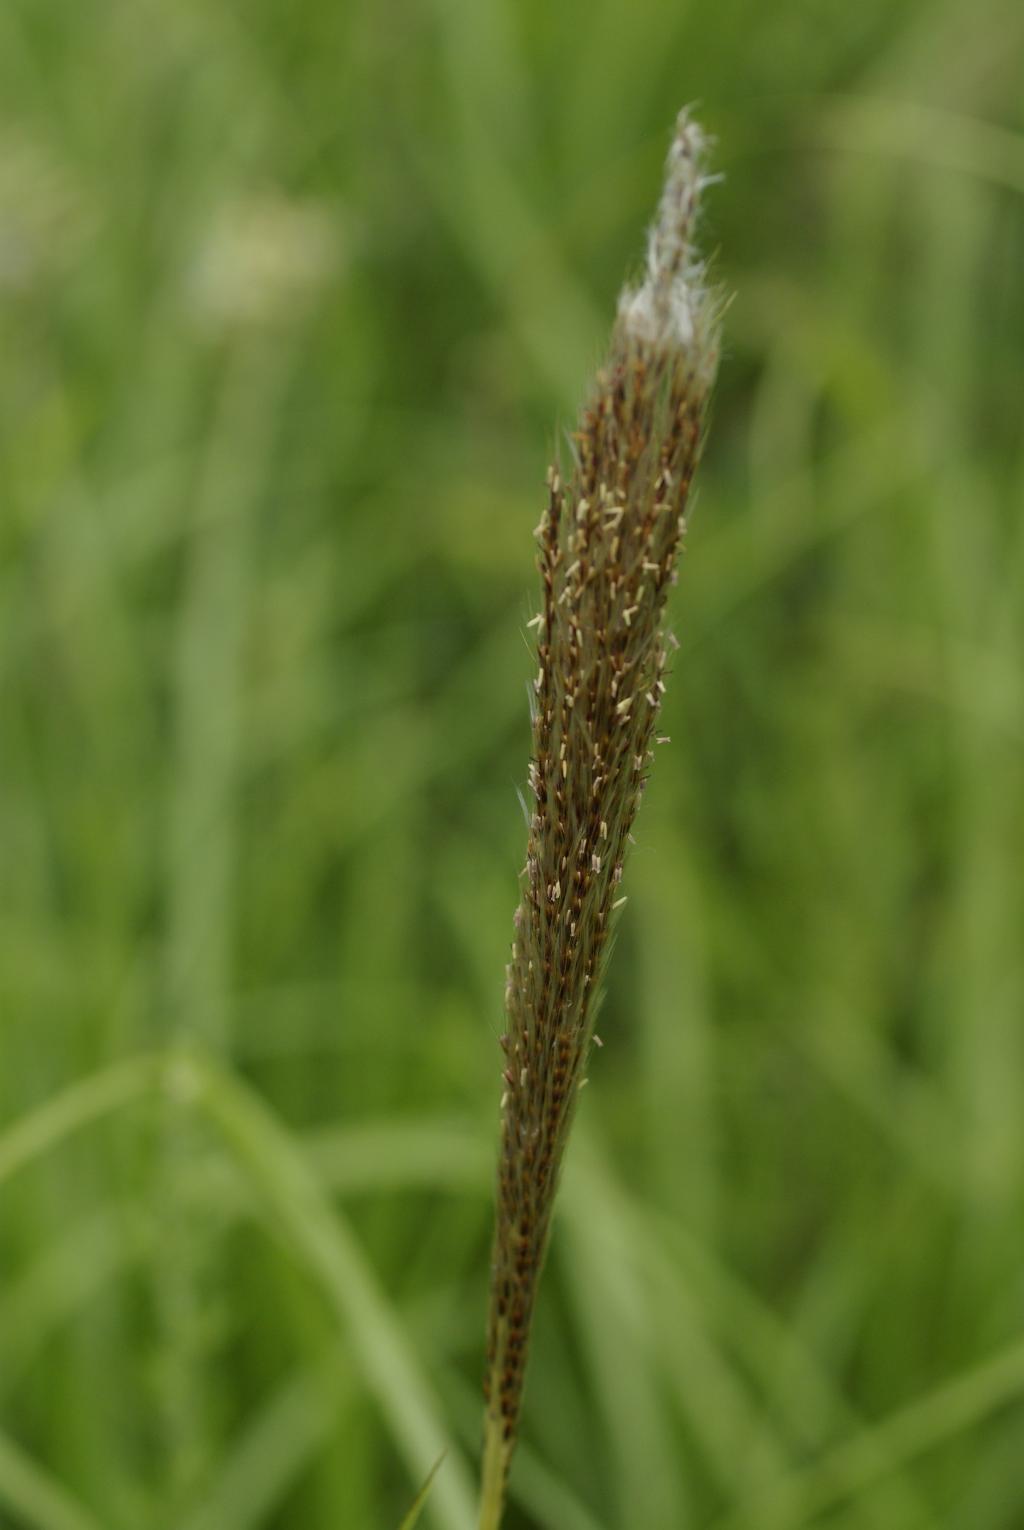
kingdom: Plantae
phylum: Tracheophyta
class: Liliopsida
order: Poales
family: Poaceae
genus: Saccharum
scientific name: Saccharum formosanum
